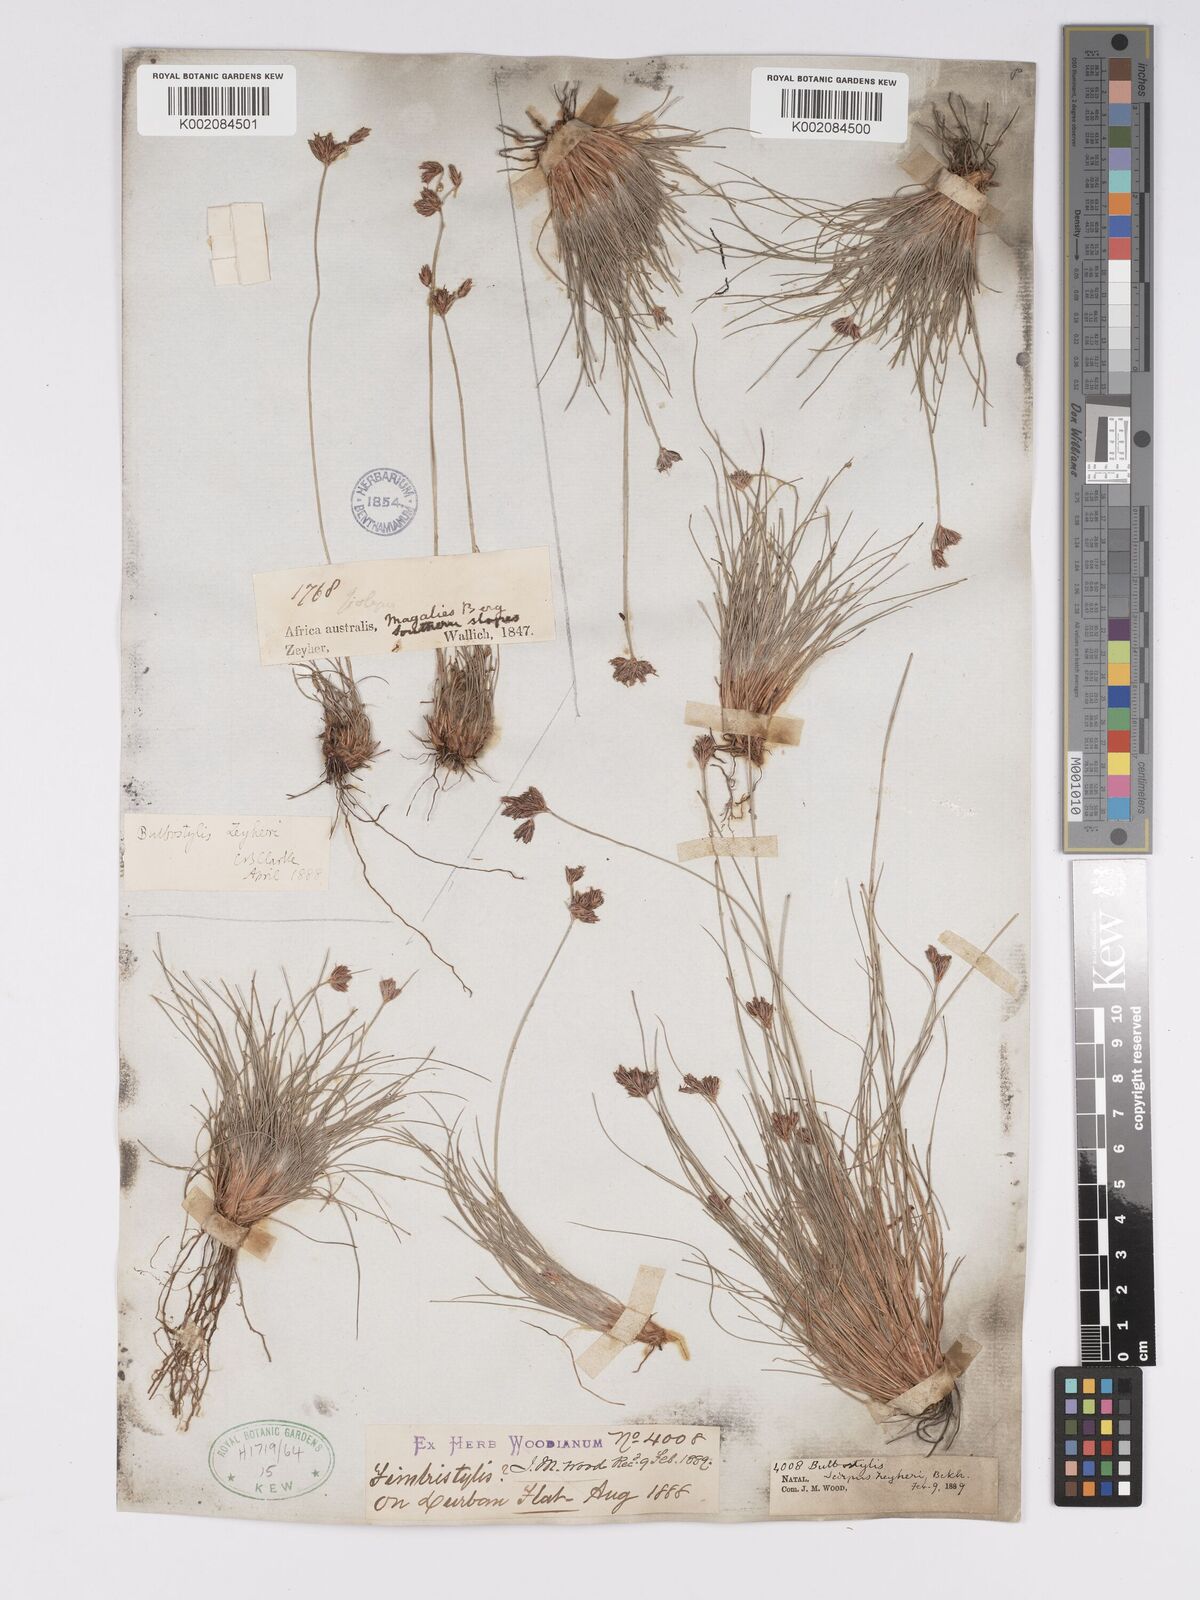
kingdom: Plantae
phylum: Tracheophyta
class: Liliopsida
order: Poales
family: Cyperaceae
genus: Bulbostylis
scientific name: Bulbostylis contexta
